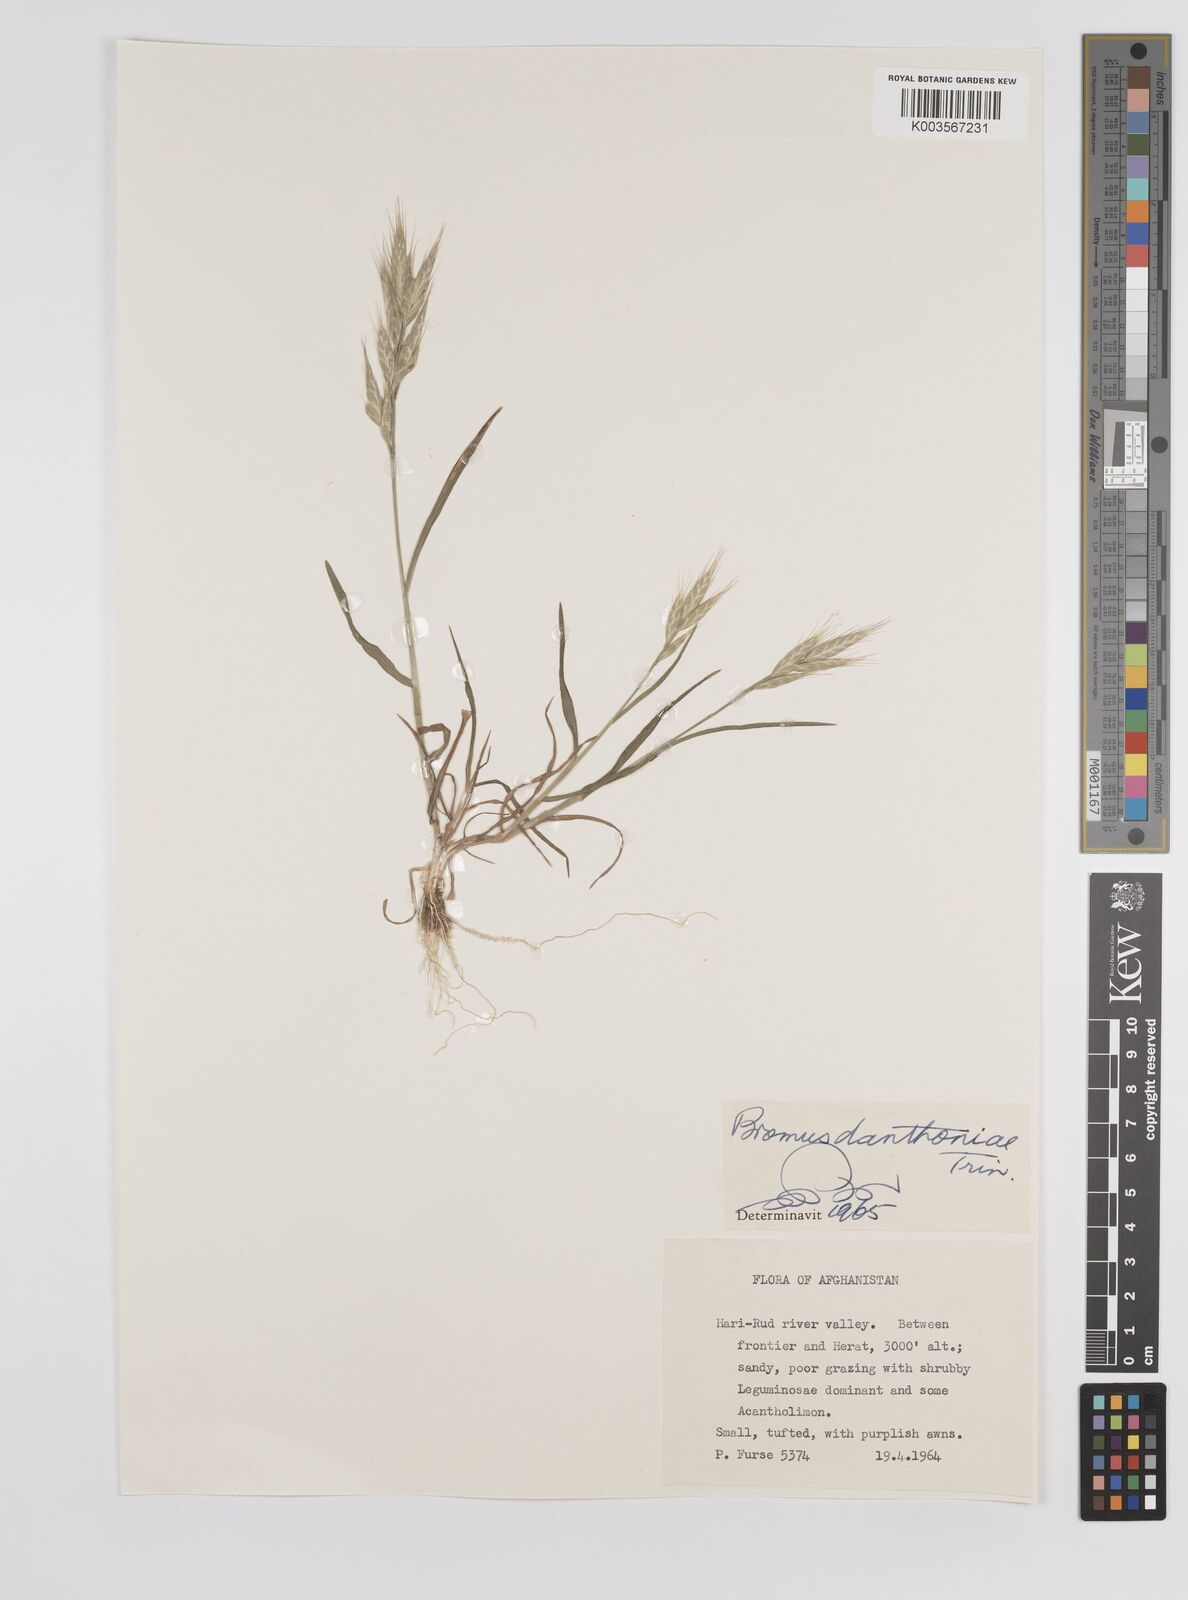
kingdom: Plantae
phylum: Tracheophyta
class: Liliopsida
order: Poales
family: Poaceae
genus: Bromus
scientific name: Bromus danthoniae
